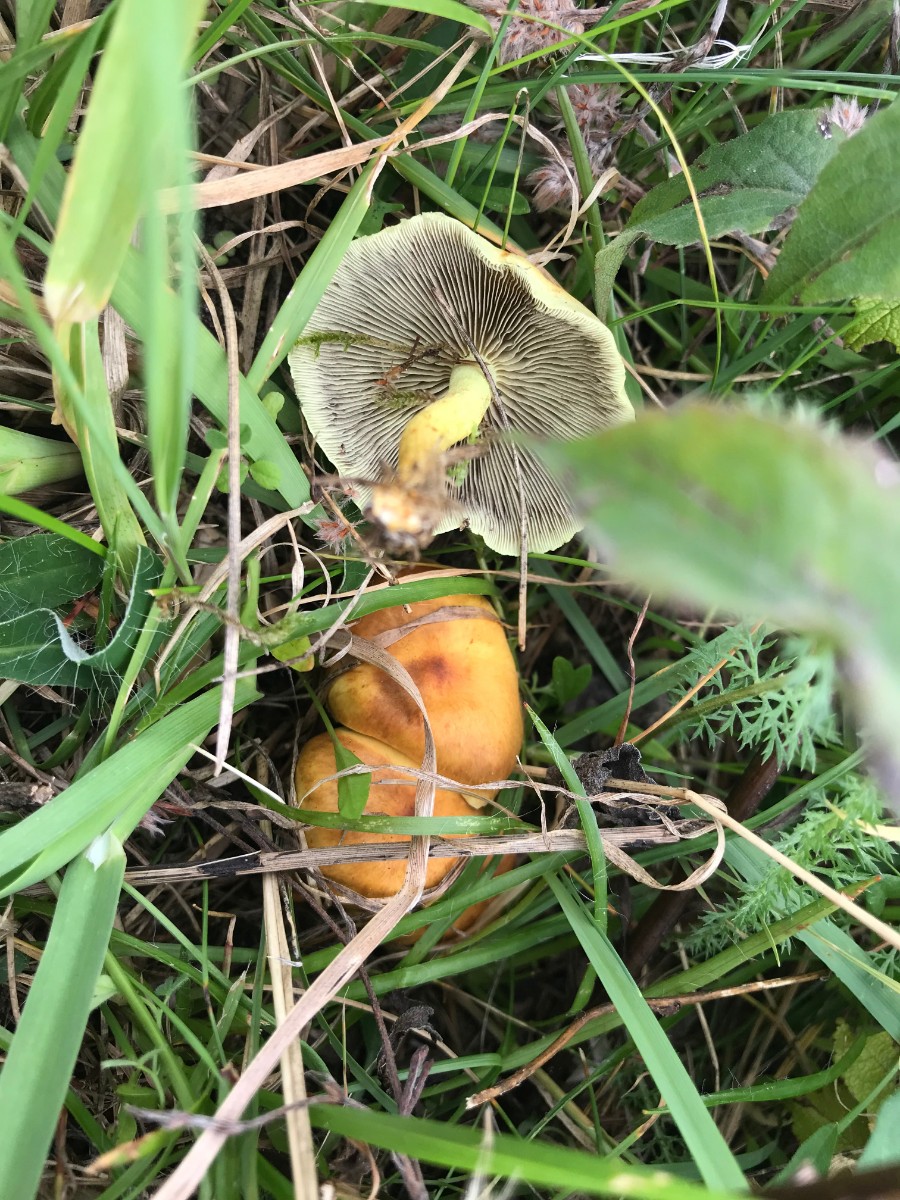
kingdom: Fungi
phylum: Basidiomycota
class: Agaricomycetes
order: Agaricales
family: Strophariaceae
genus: Hypholoma
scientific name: Hypholoma fasciculare
